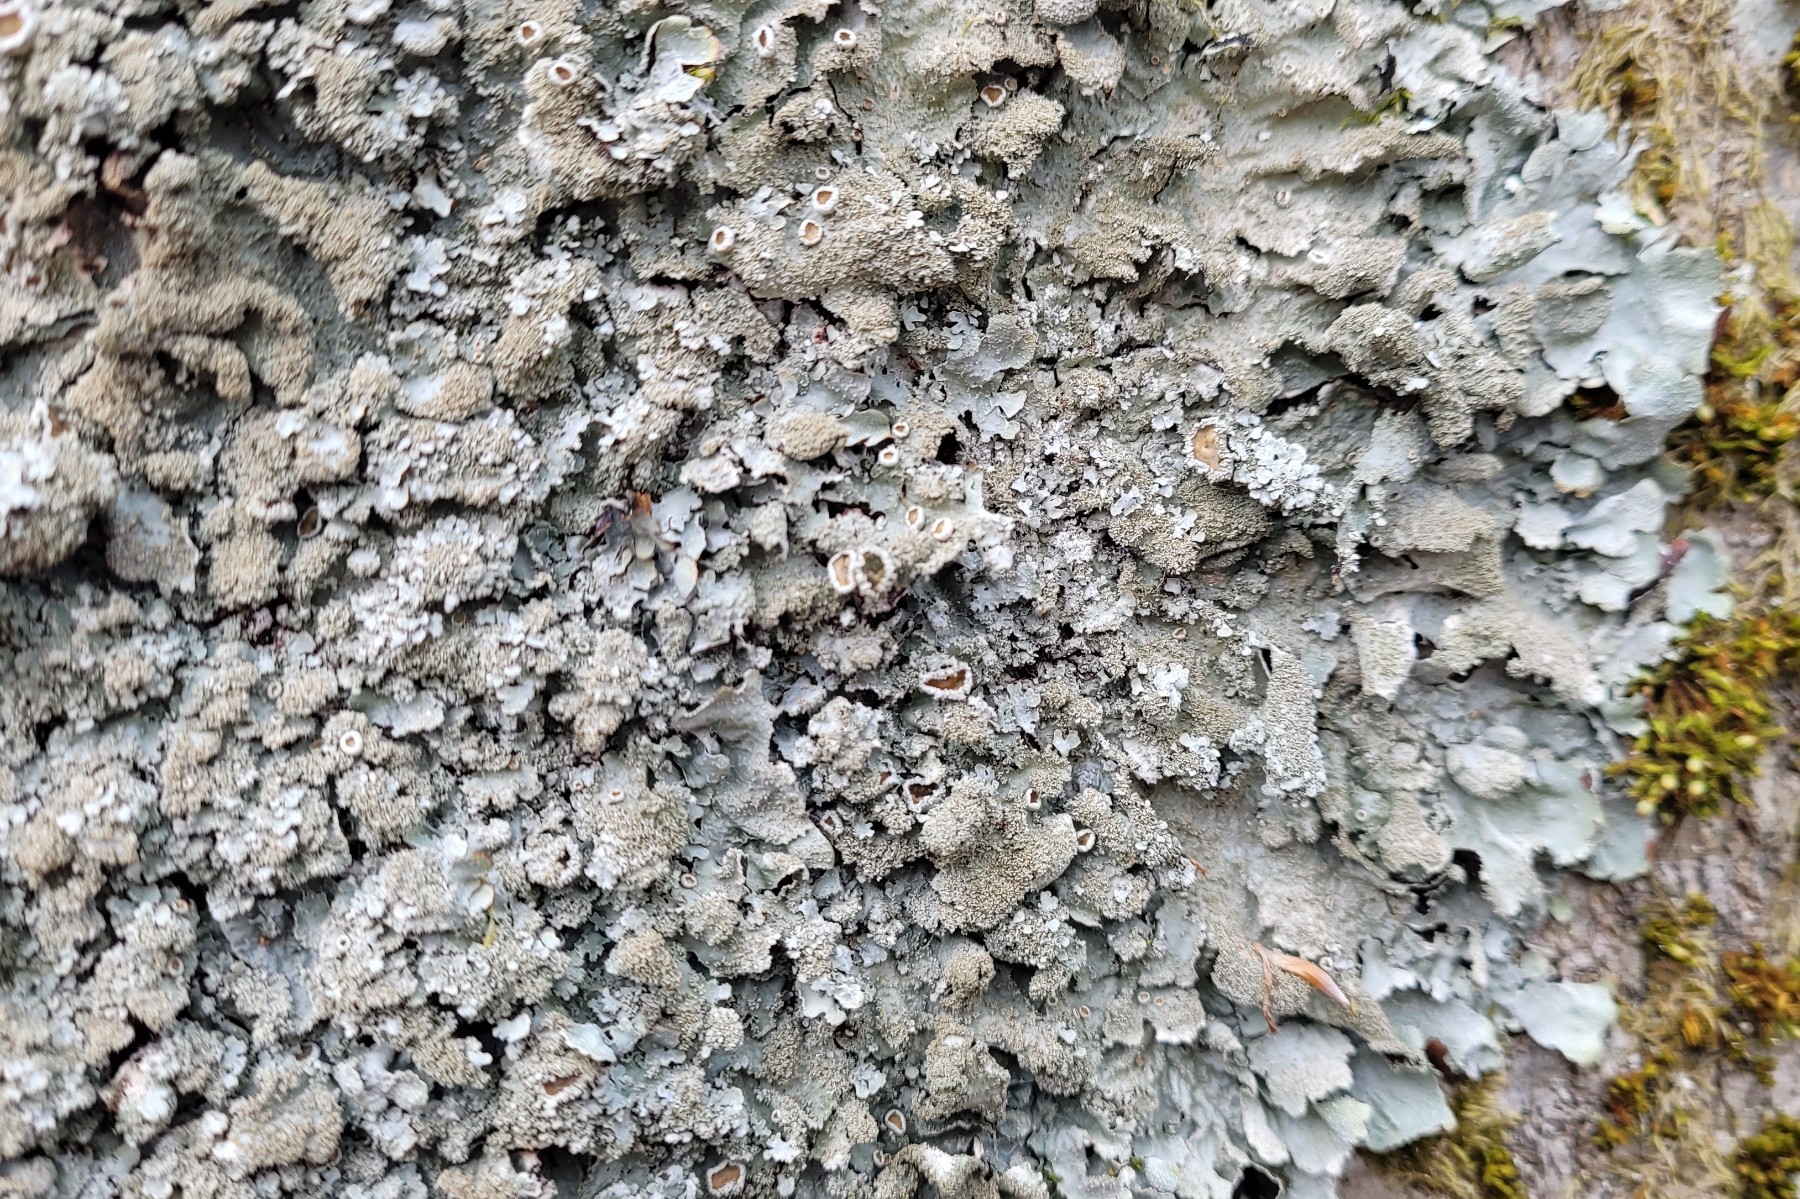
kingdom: Fungi
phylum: Ascomycota
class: Lecanoromycetes
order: Lecanorales
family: Parmeliaceae
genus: Parmelia
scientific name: Parmelia saxatilis
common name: farve-skållav
